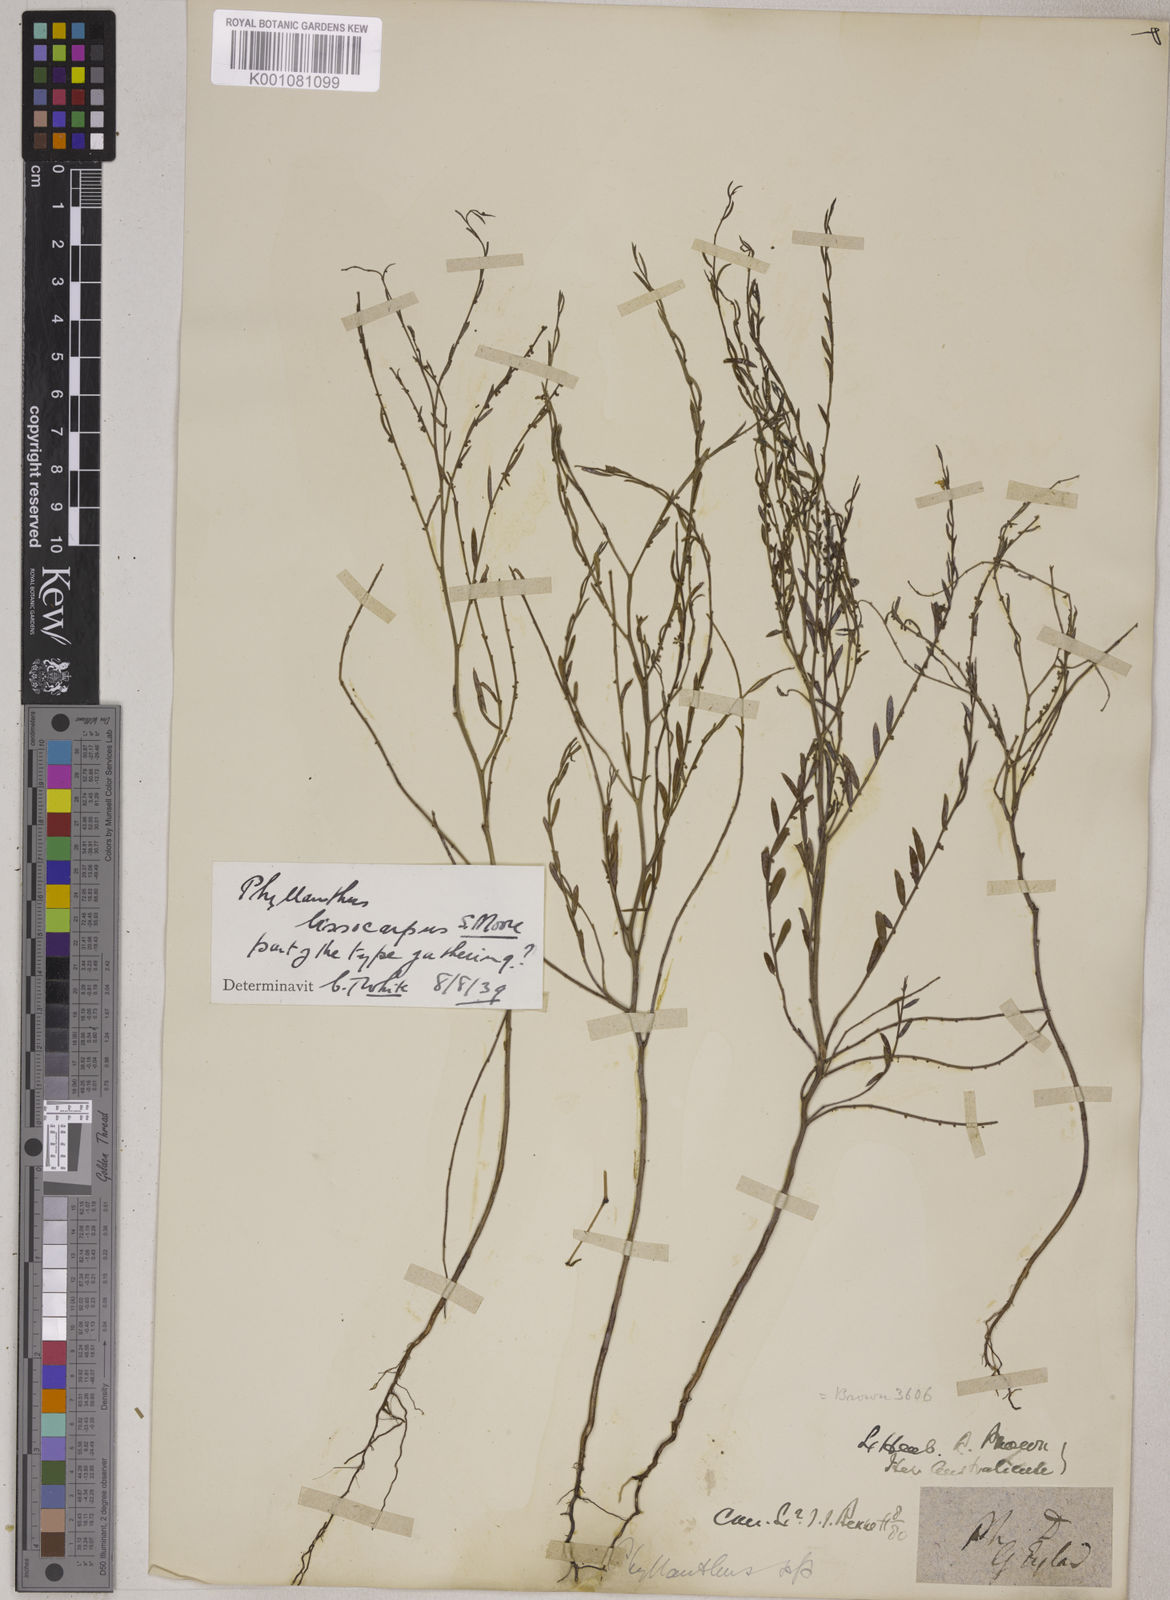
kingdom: Animalia
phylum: Chordata
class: Amphibia
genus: Sauropus
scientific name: Sauropus
